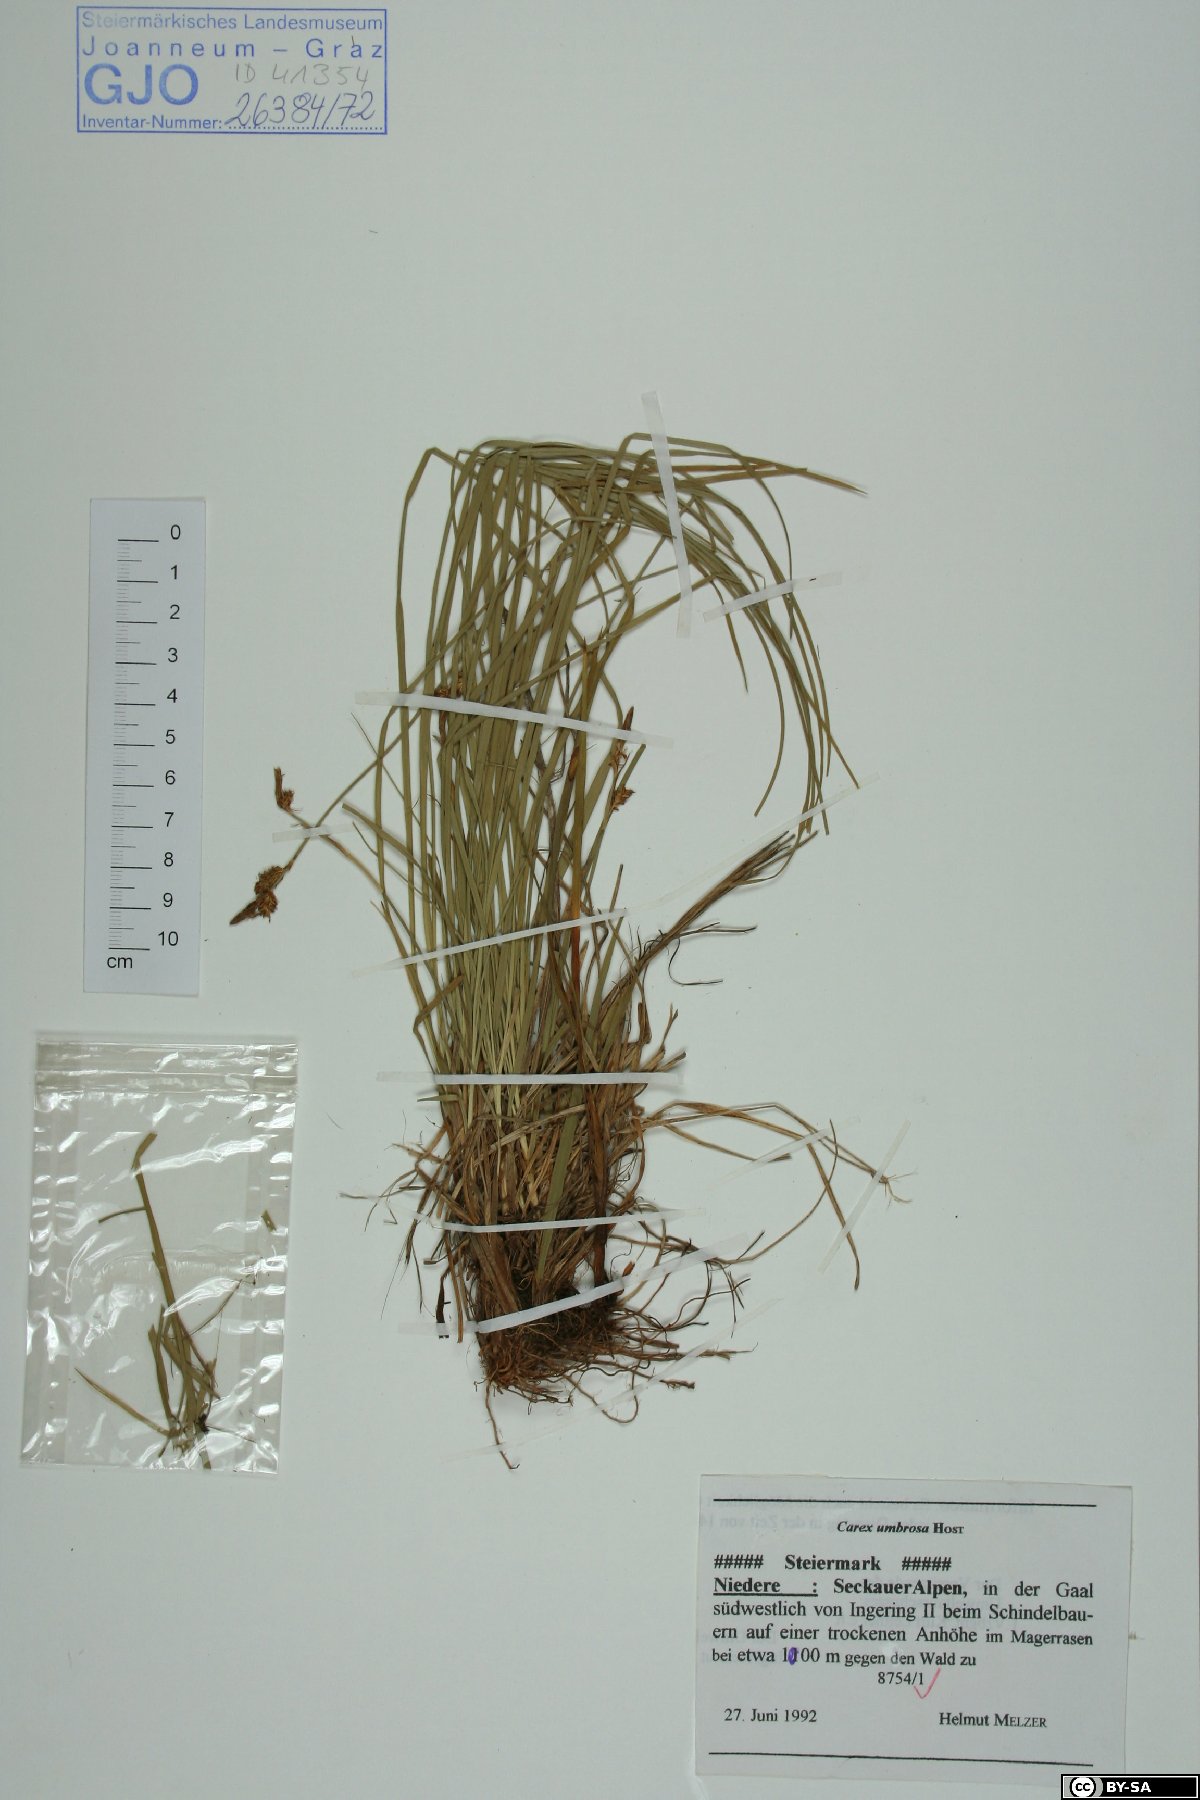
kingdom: Plantae
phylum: Tracheophyta
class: Liliopsida
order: Poales
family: Cyperaceae
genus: Carex
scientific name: Carex umbrosa
